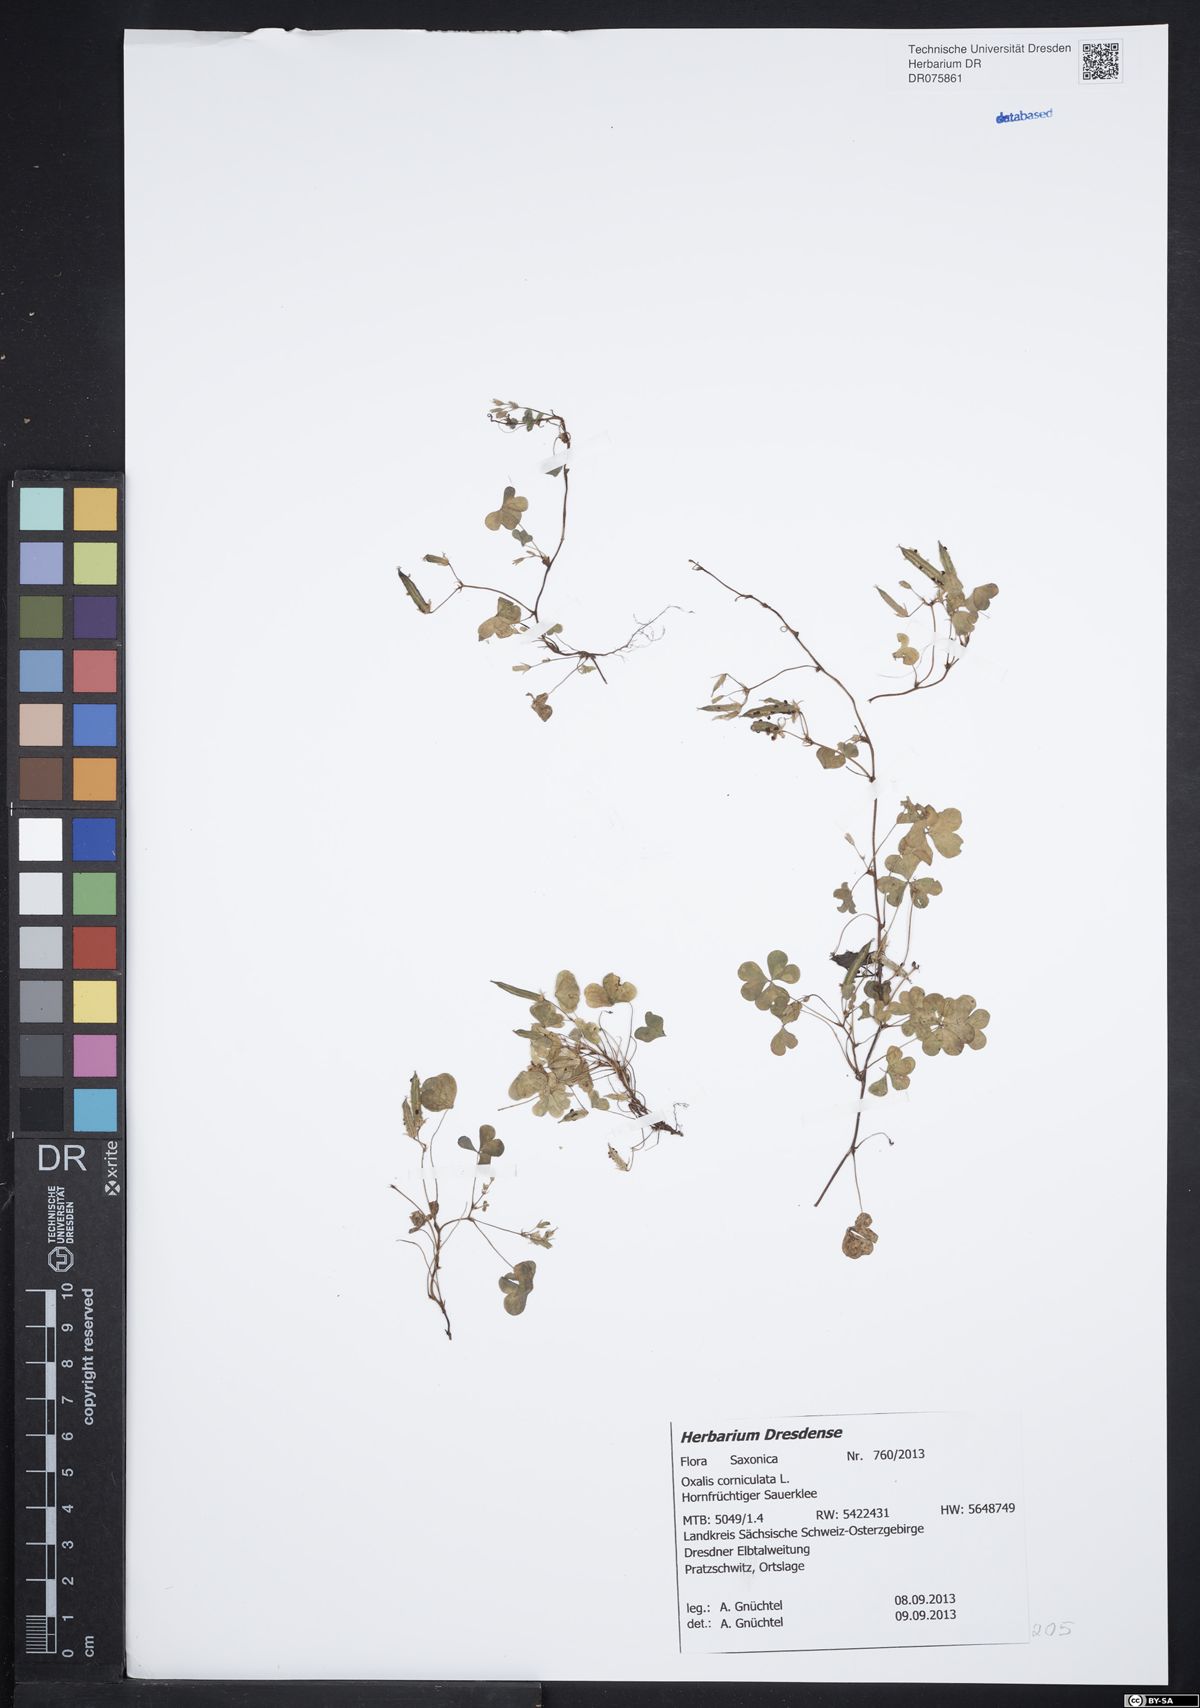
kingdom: Plantae
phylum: Tracheophyta
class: Magnoliopsida
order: Oxalidales
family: Oxalidaceae
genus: Oxalis
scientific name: Oxalis corniculata
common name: Procumbent yellow-sorrel
